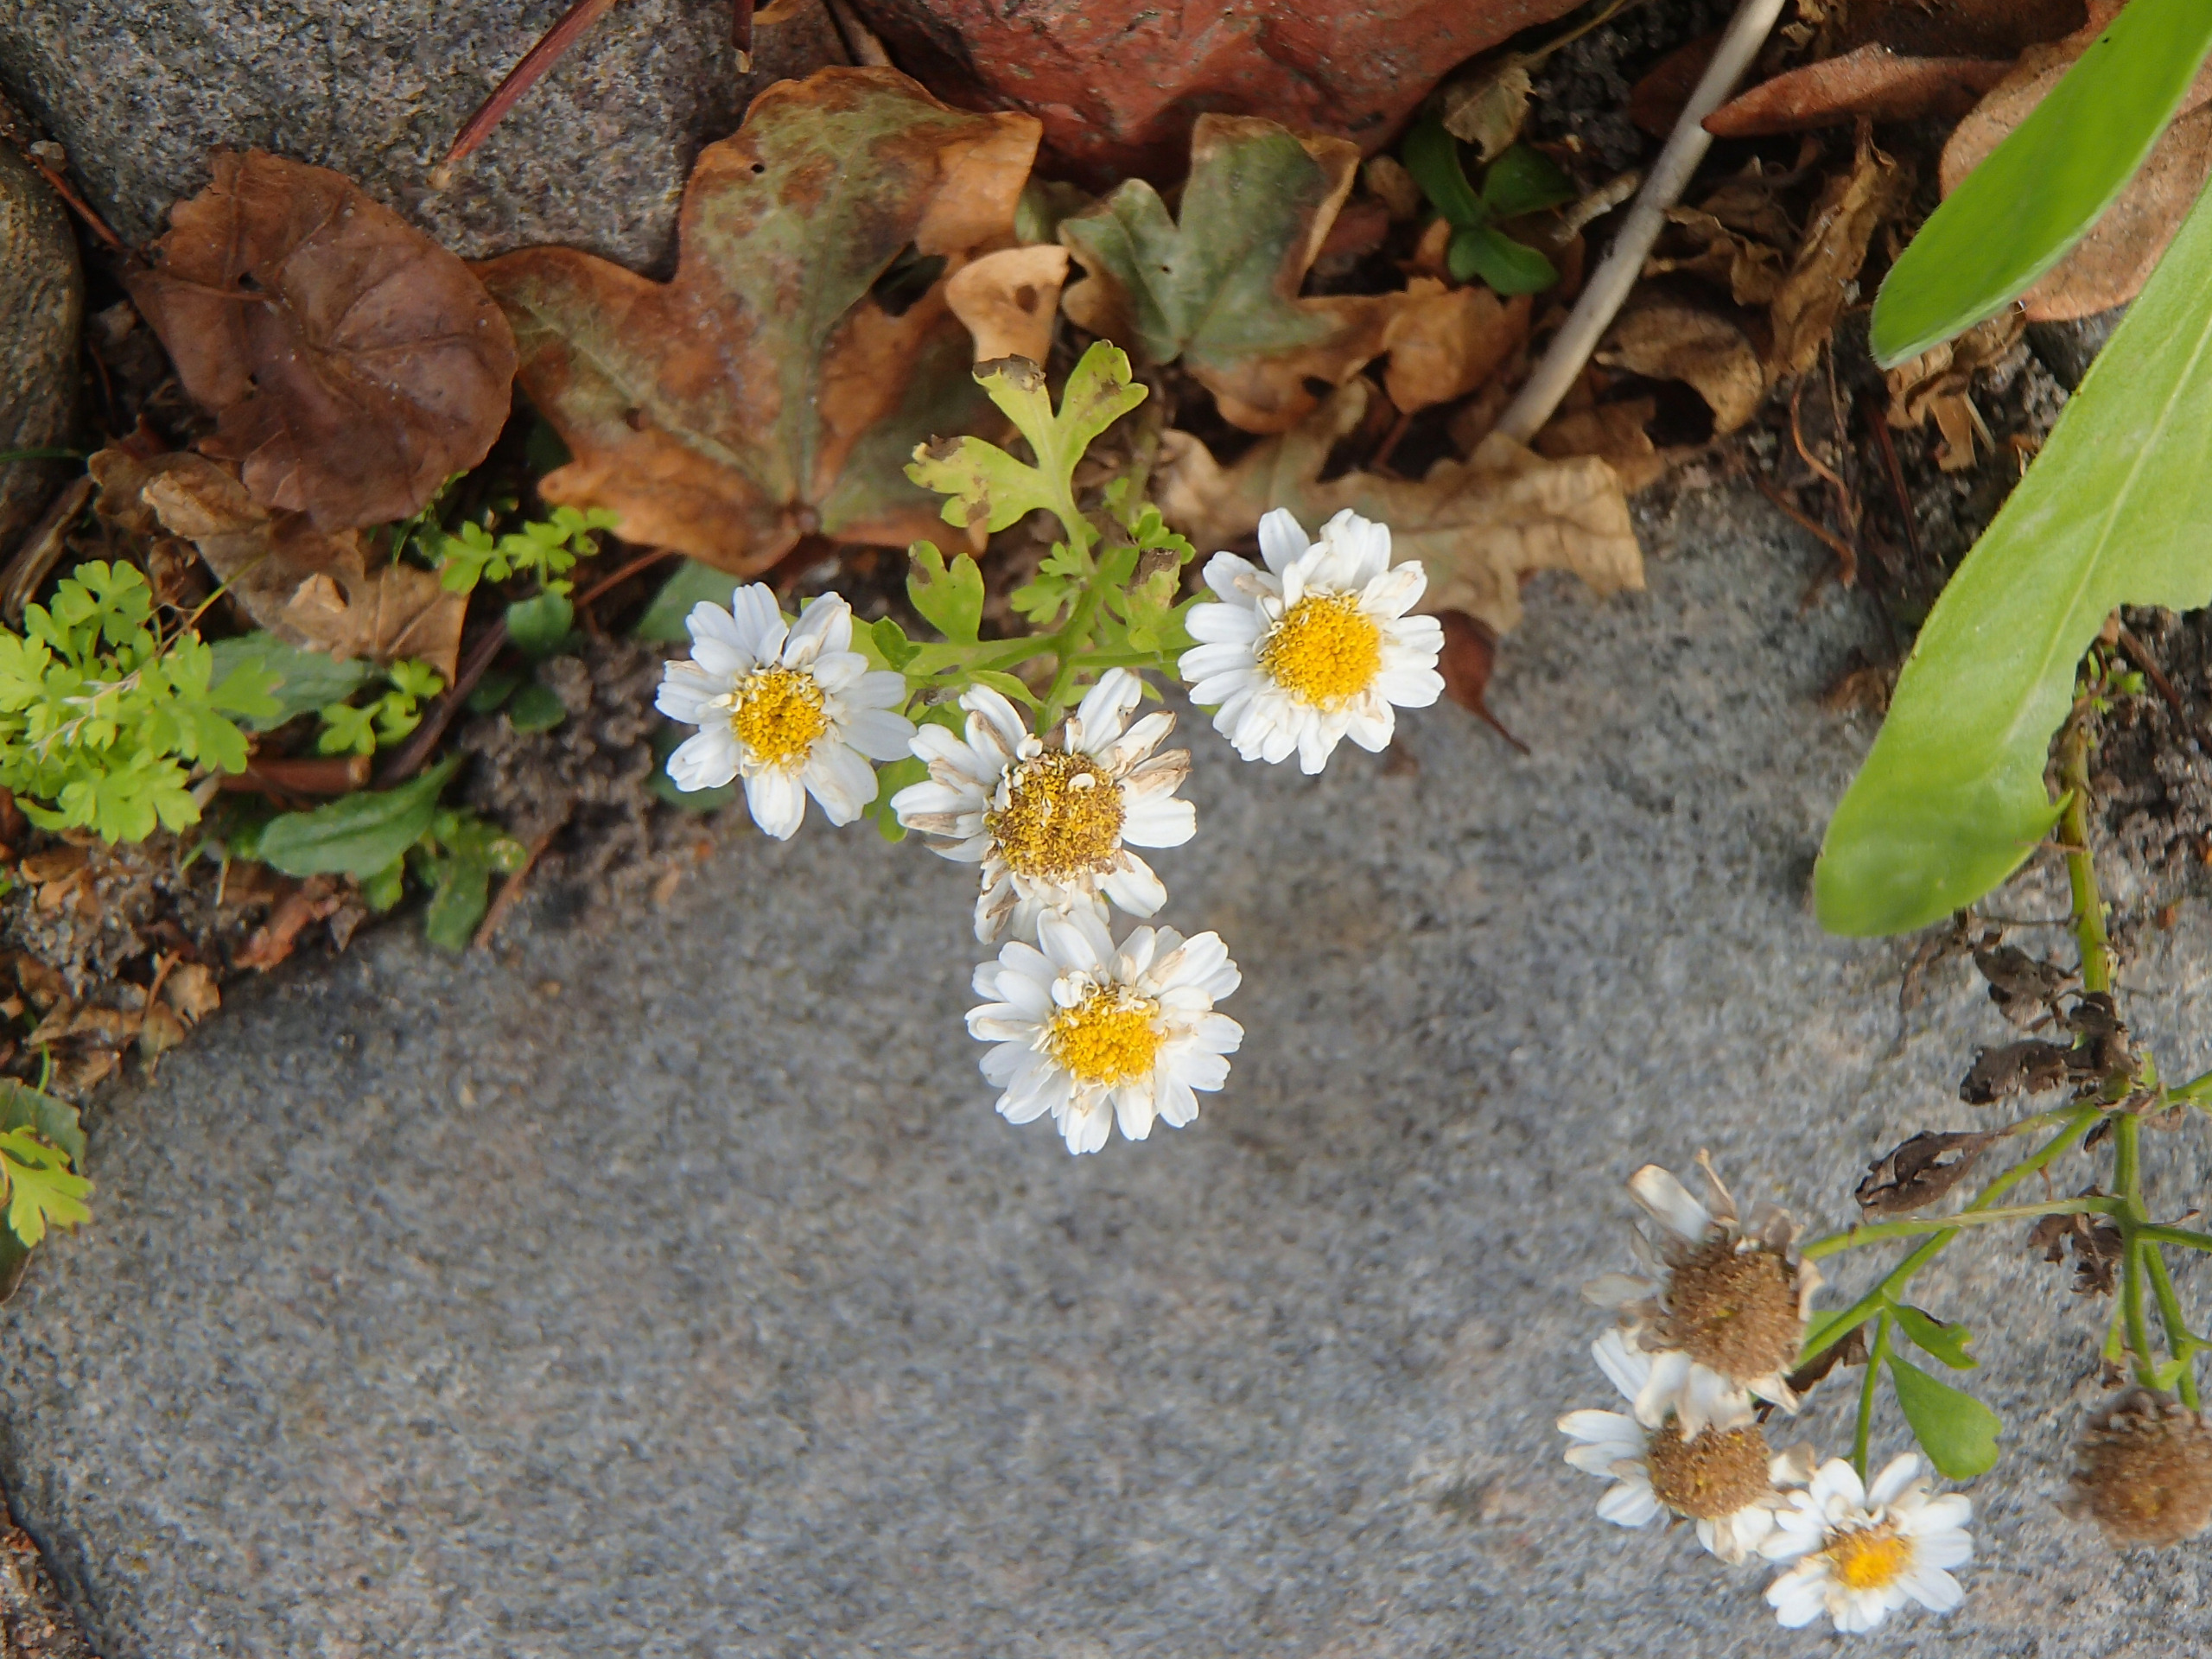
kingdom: Plantae
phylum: Tracheophyta
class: Magnoliopsida
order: Asterales
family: Asteraceae
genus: Tanacetum
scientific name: Tanacetum parthenium
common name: Matrem
